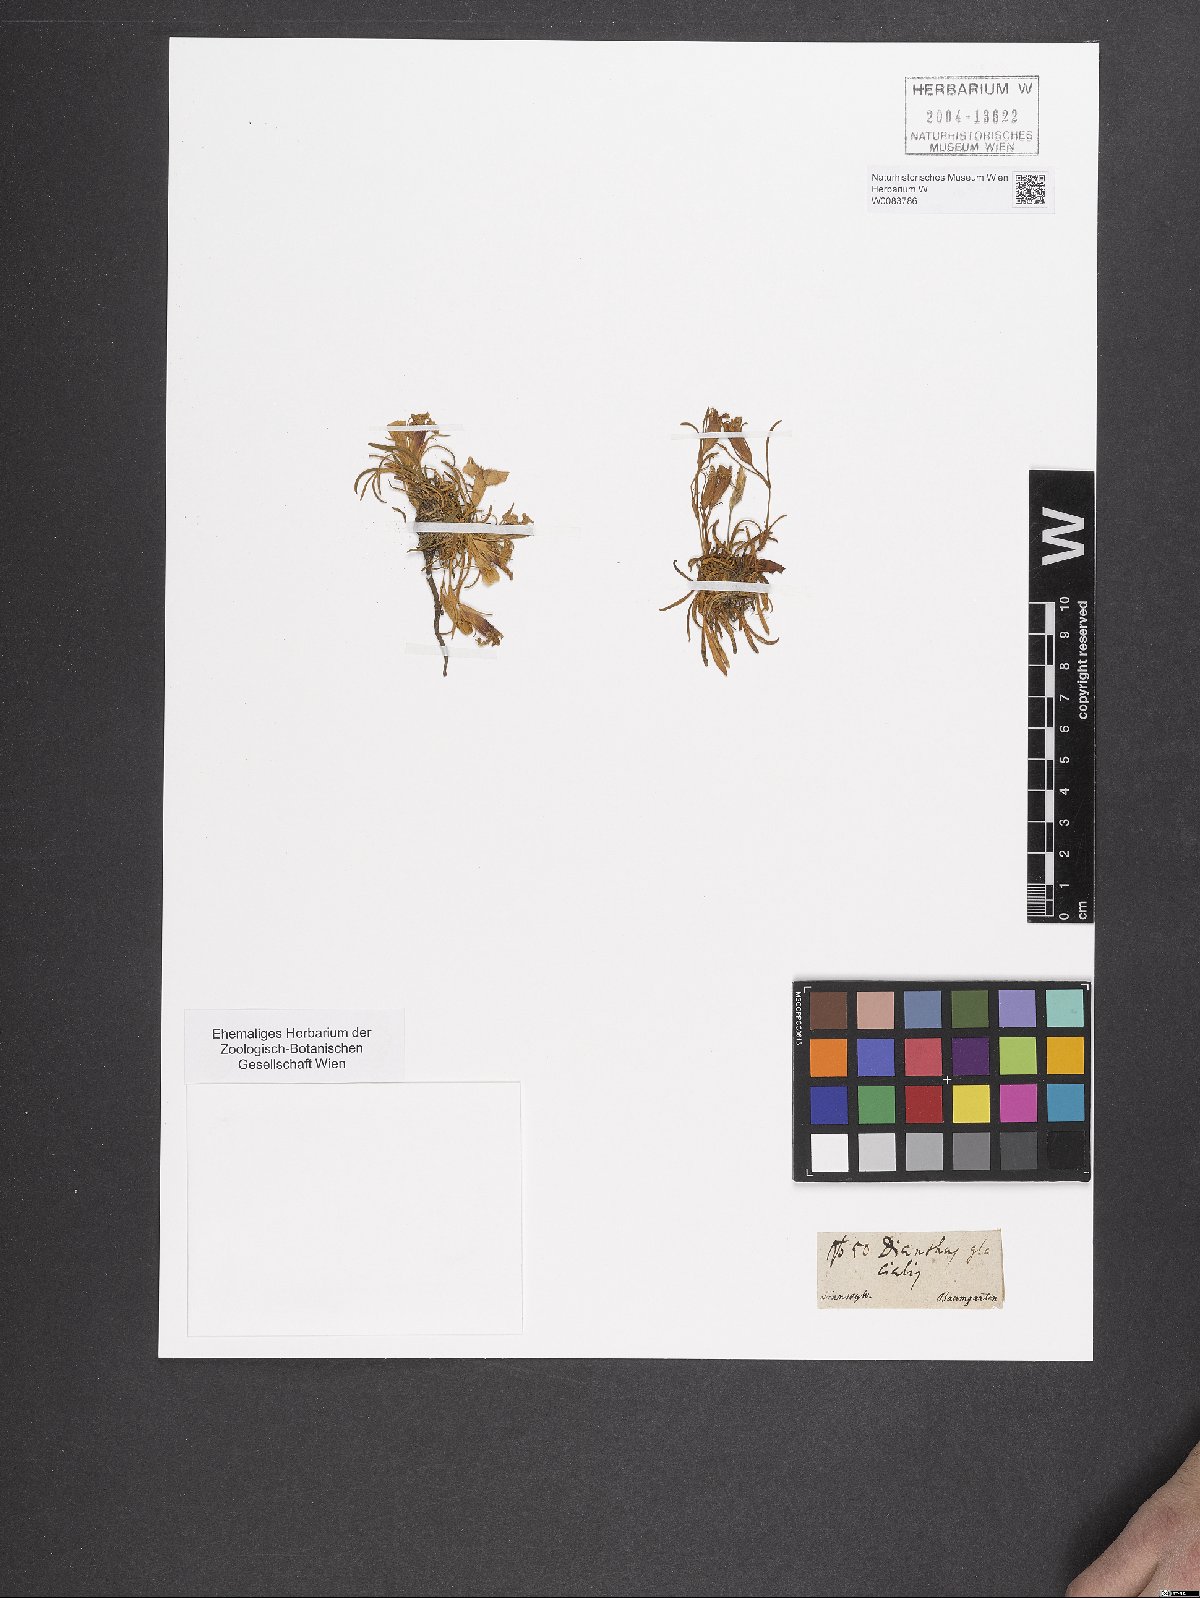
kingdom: Plantae
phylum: Tracheophyta
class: Magnoliopsida
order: Caryophyllales
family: Caryophyllaceae
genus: Dianthus
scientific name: Dianthus glacialis
